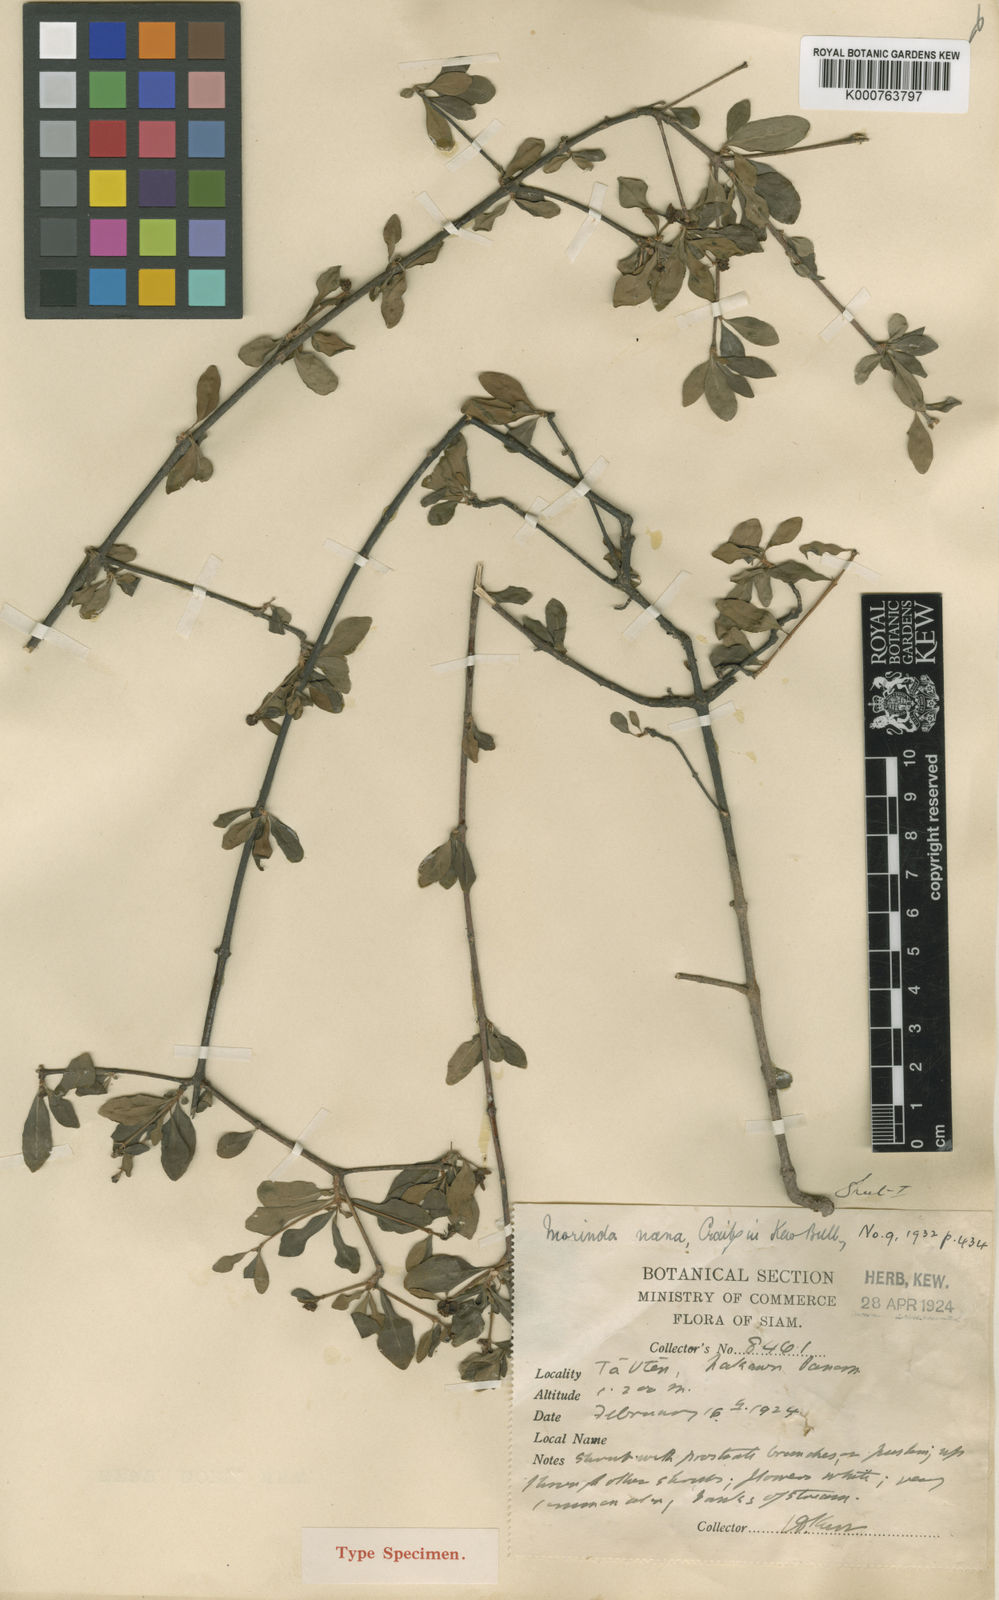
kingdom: Plantae
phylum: Tracheophyta
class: Magnoliopsida
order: Gentianales
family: Rubiaceae
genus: Morinda
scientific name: Morinda nana
